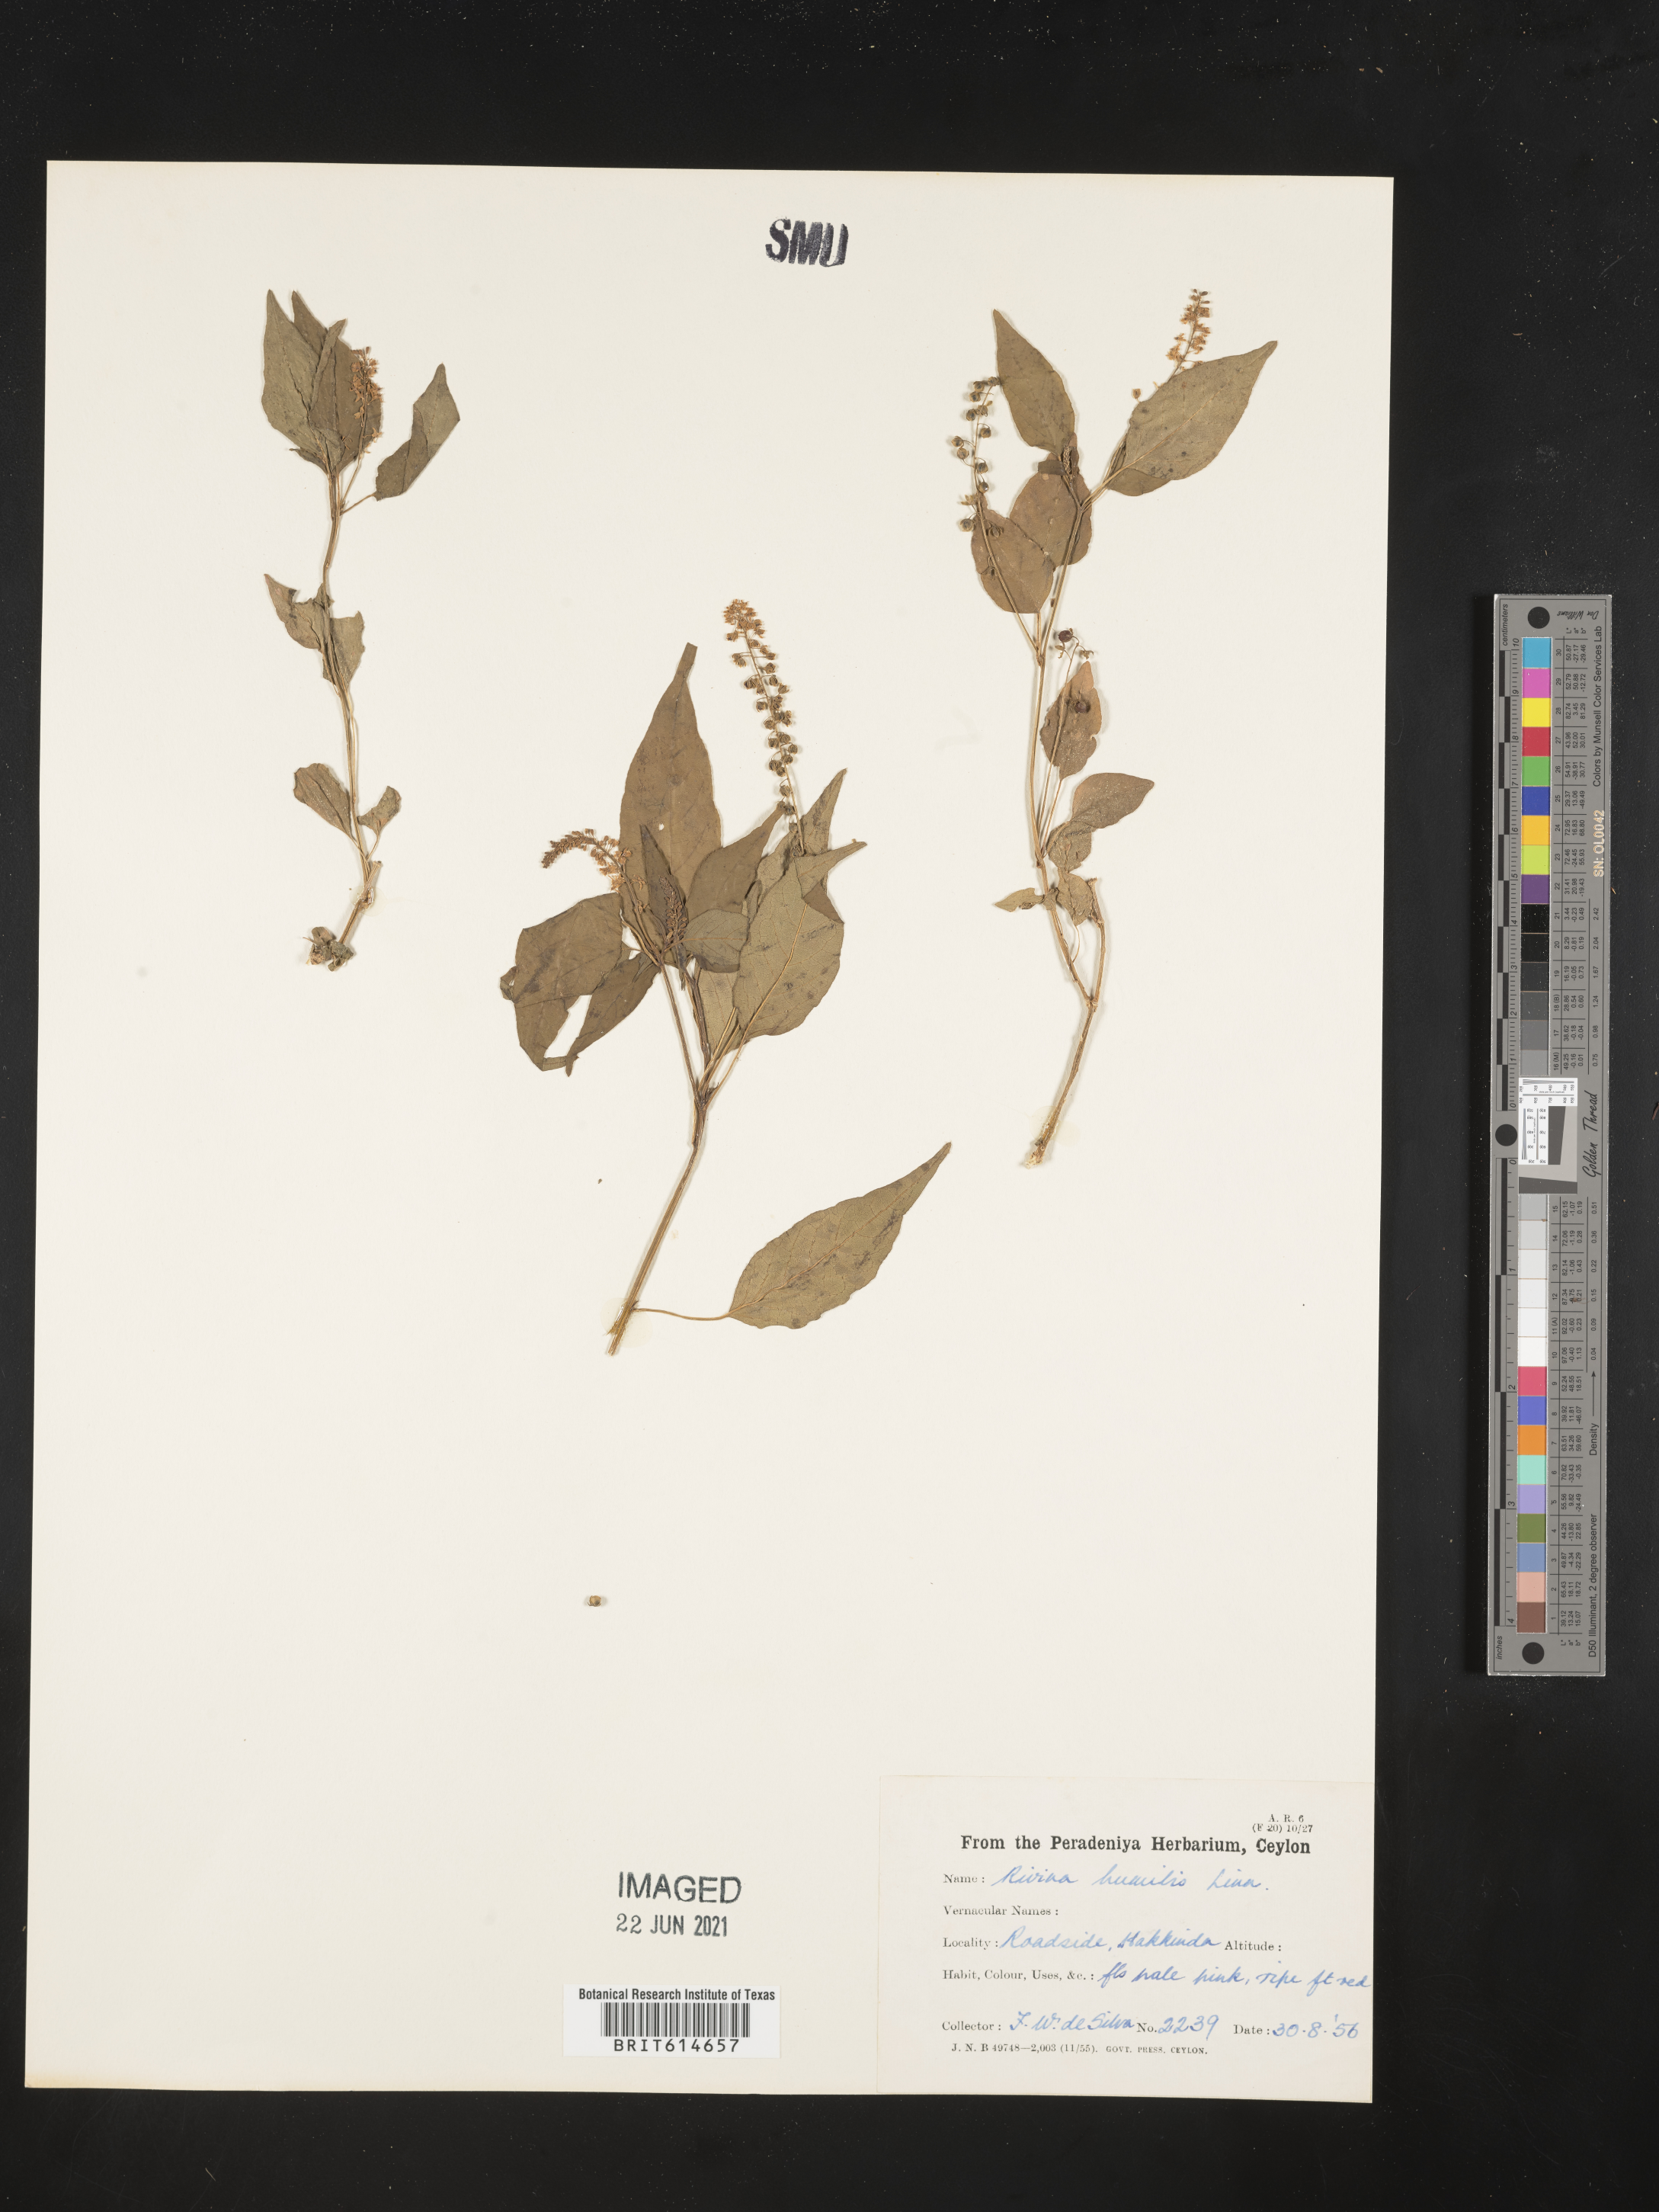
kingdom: Plantae
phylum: Tracheophyta
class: Magnoliopsida
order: Caryophyllales
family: Phytolaccaceae
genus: Rivina
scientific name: Rivina humilis
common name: Rougeplant
